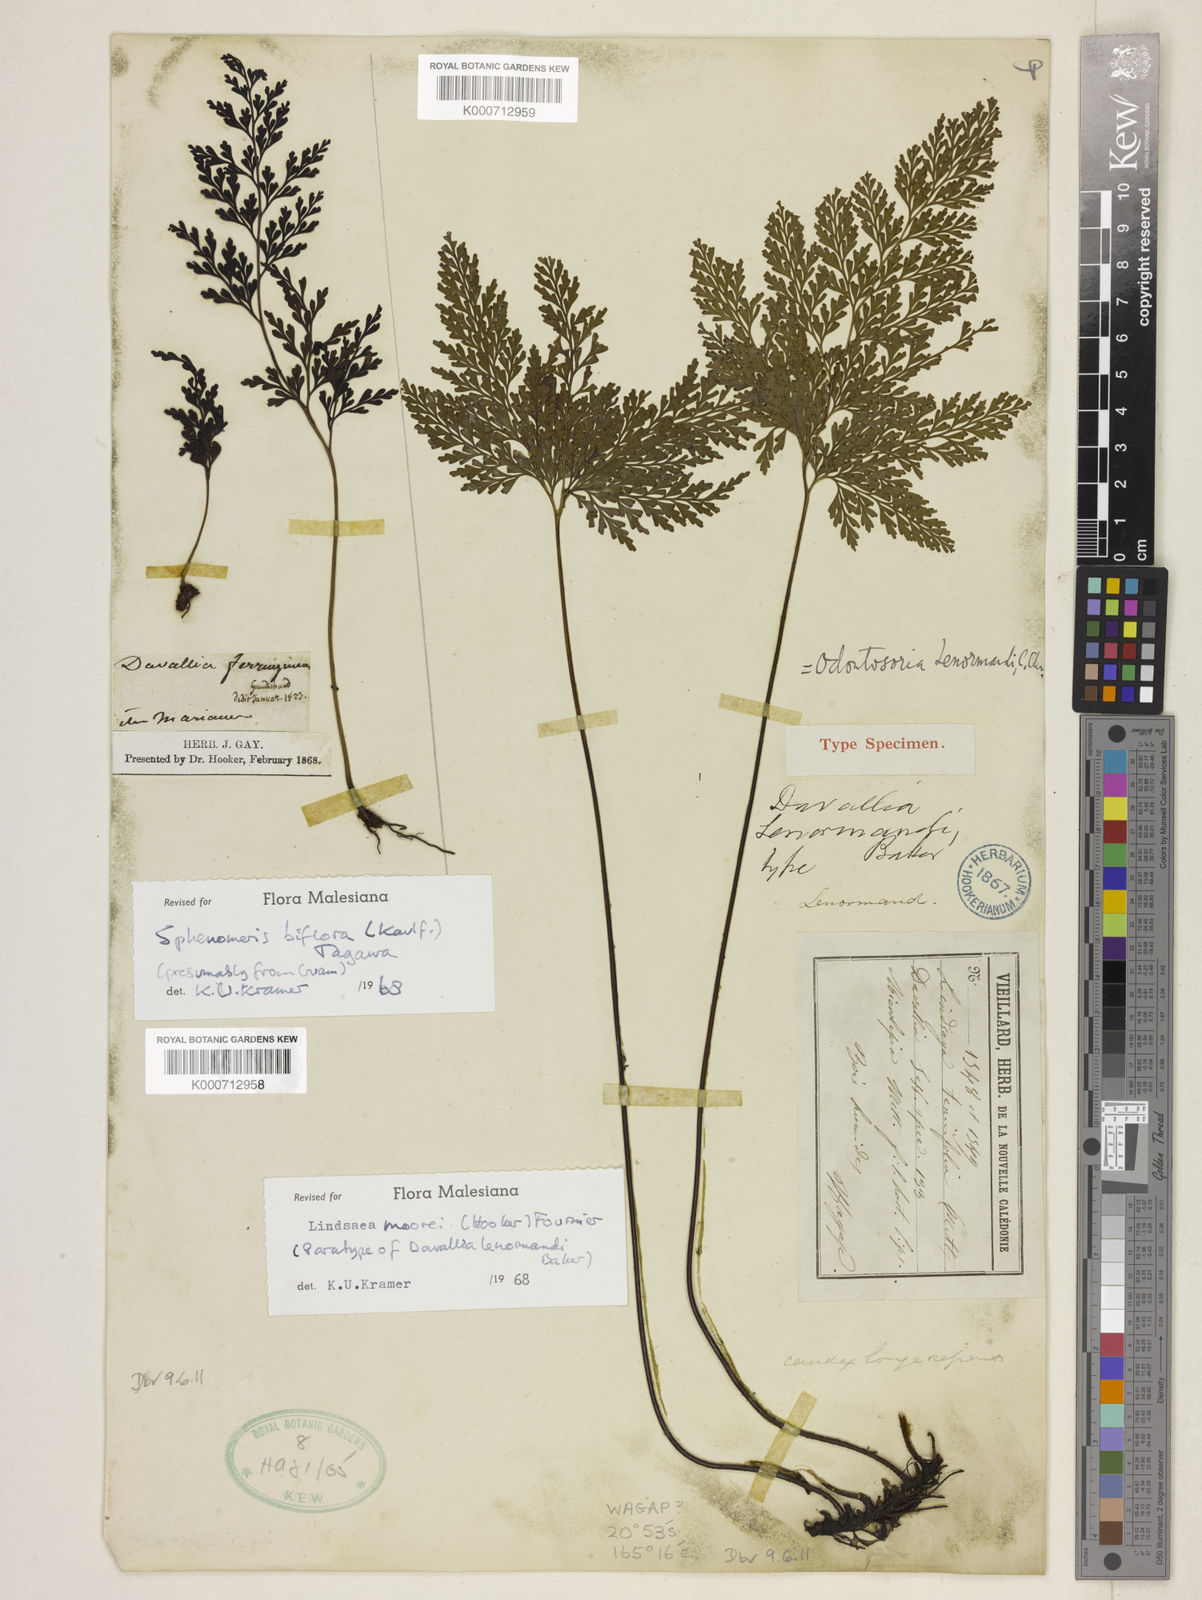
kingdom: Plantae
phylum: Tracheophyta
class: Polypodiopsida
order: Polypodiales
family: Lindsaeaceae
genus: Tapeinidium
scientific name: Tapeinidium moorei
